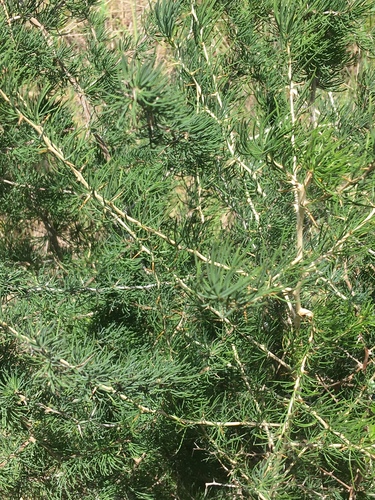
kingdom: Plantae
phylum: Tracheophyta
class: Liliopsida
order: Asparagales
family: Asparagaceae
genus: Asparagus
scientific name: Asparagus albus
